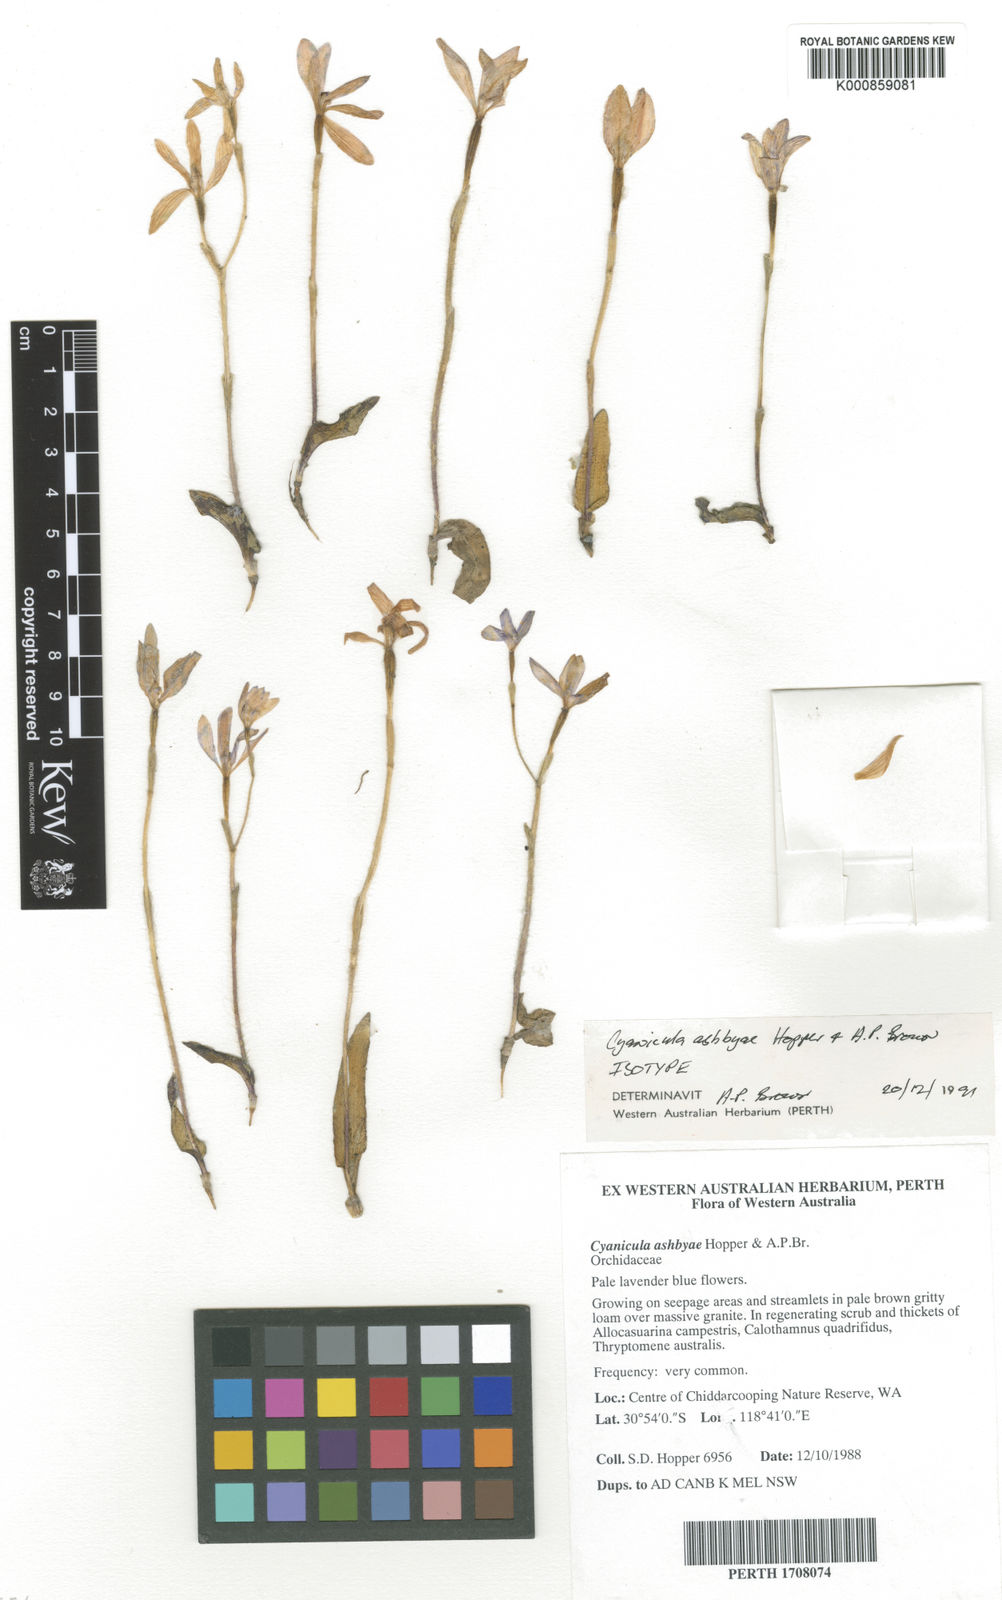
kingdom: Plantae
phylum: Tracheophyta
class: Liliopsida
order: Asparagales
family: Orchidaceae
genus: Caladenia
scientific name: Caladenia ashbyae
